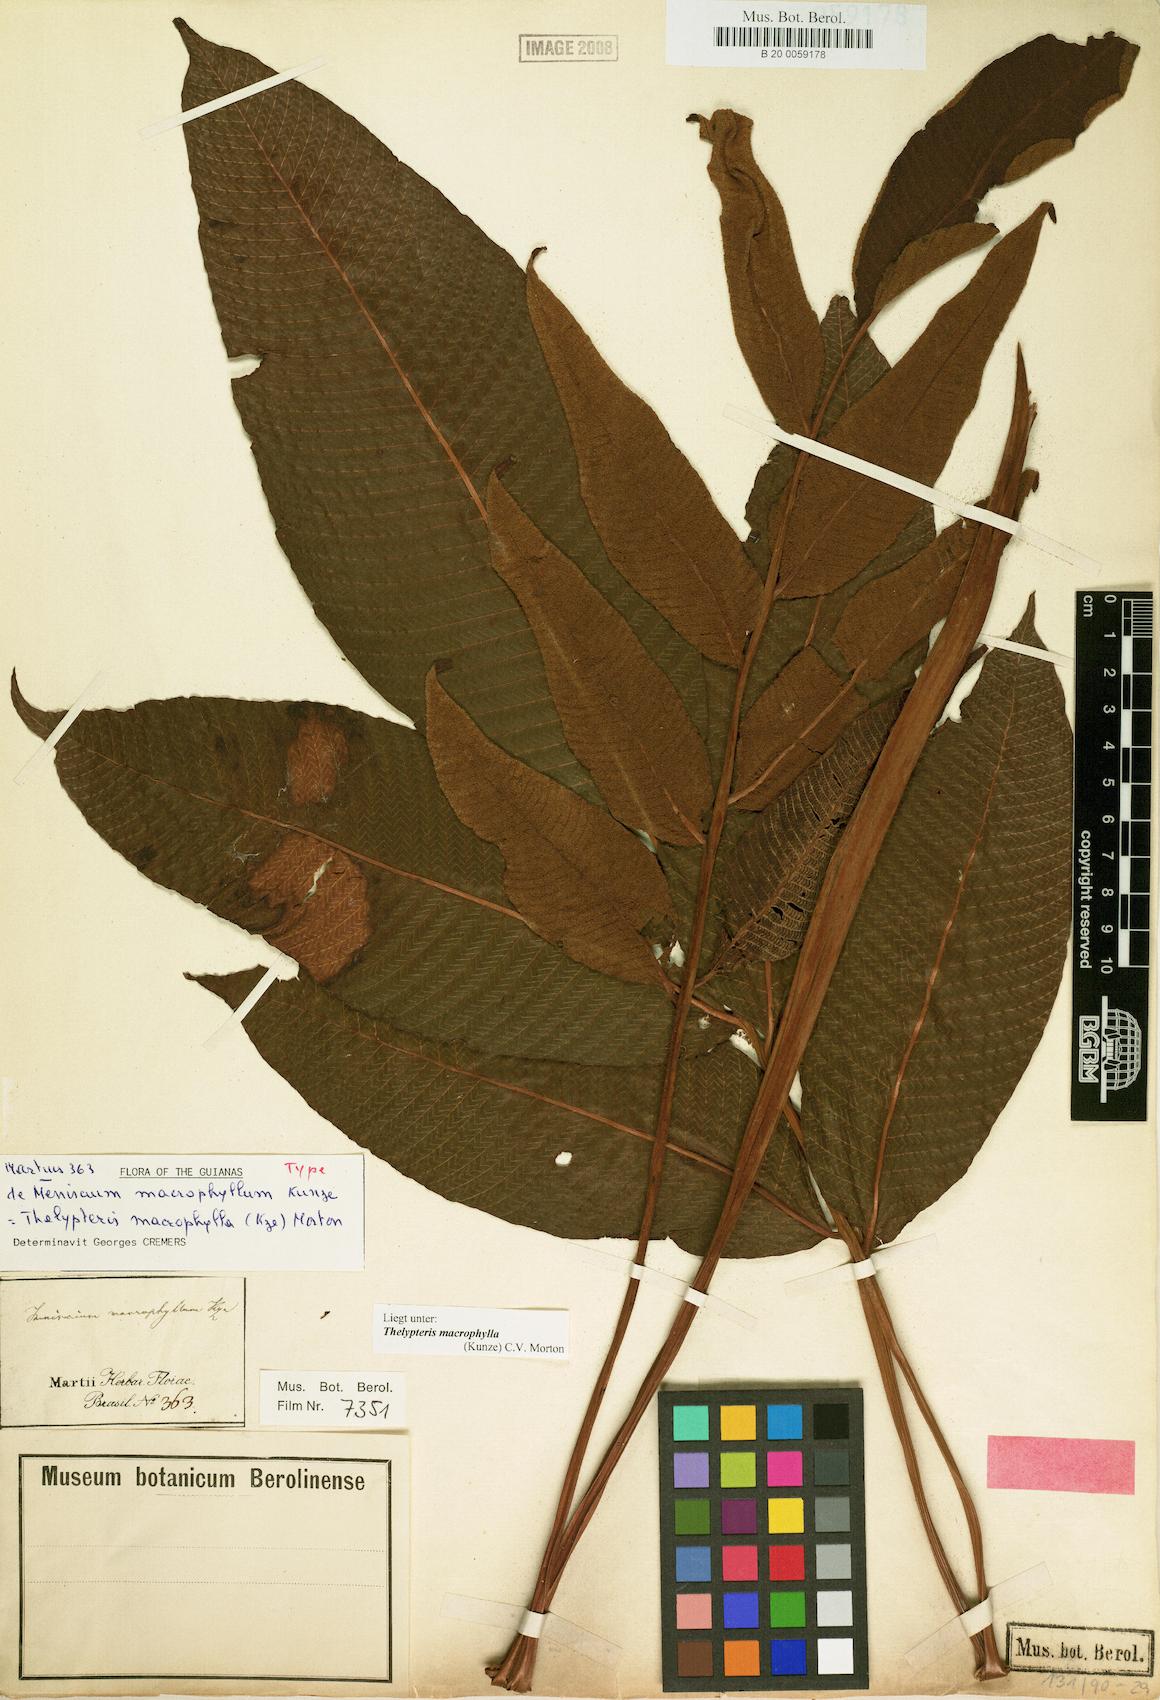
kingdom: Plantae
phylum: Tracheophyta
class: Polypodiopsida
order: Polypodiales
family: Thelypteridaceae
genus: Meniscium
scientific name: Meniscium macrophyllum
